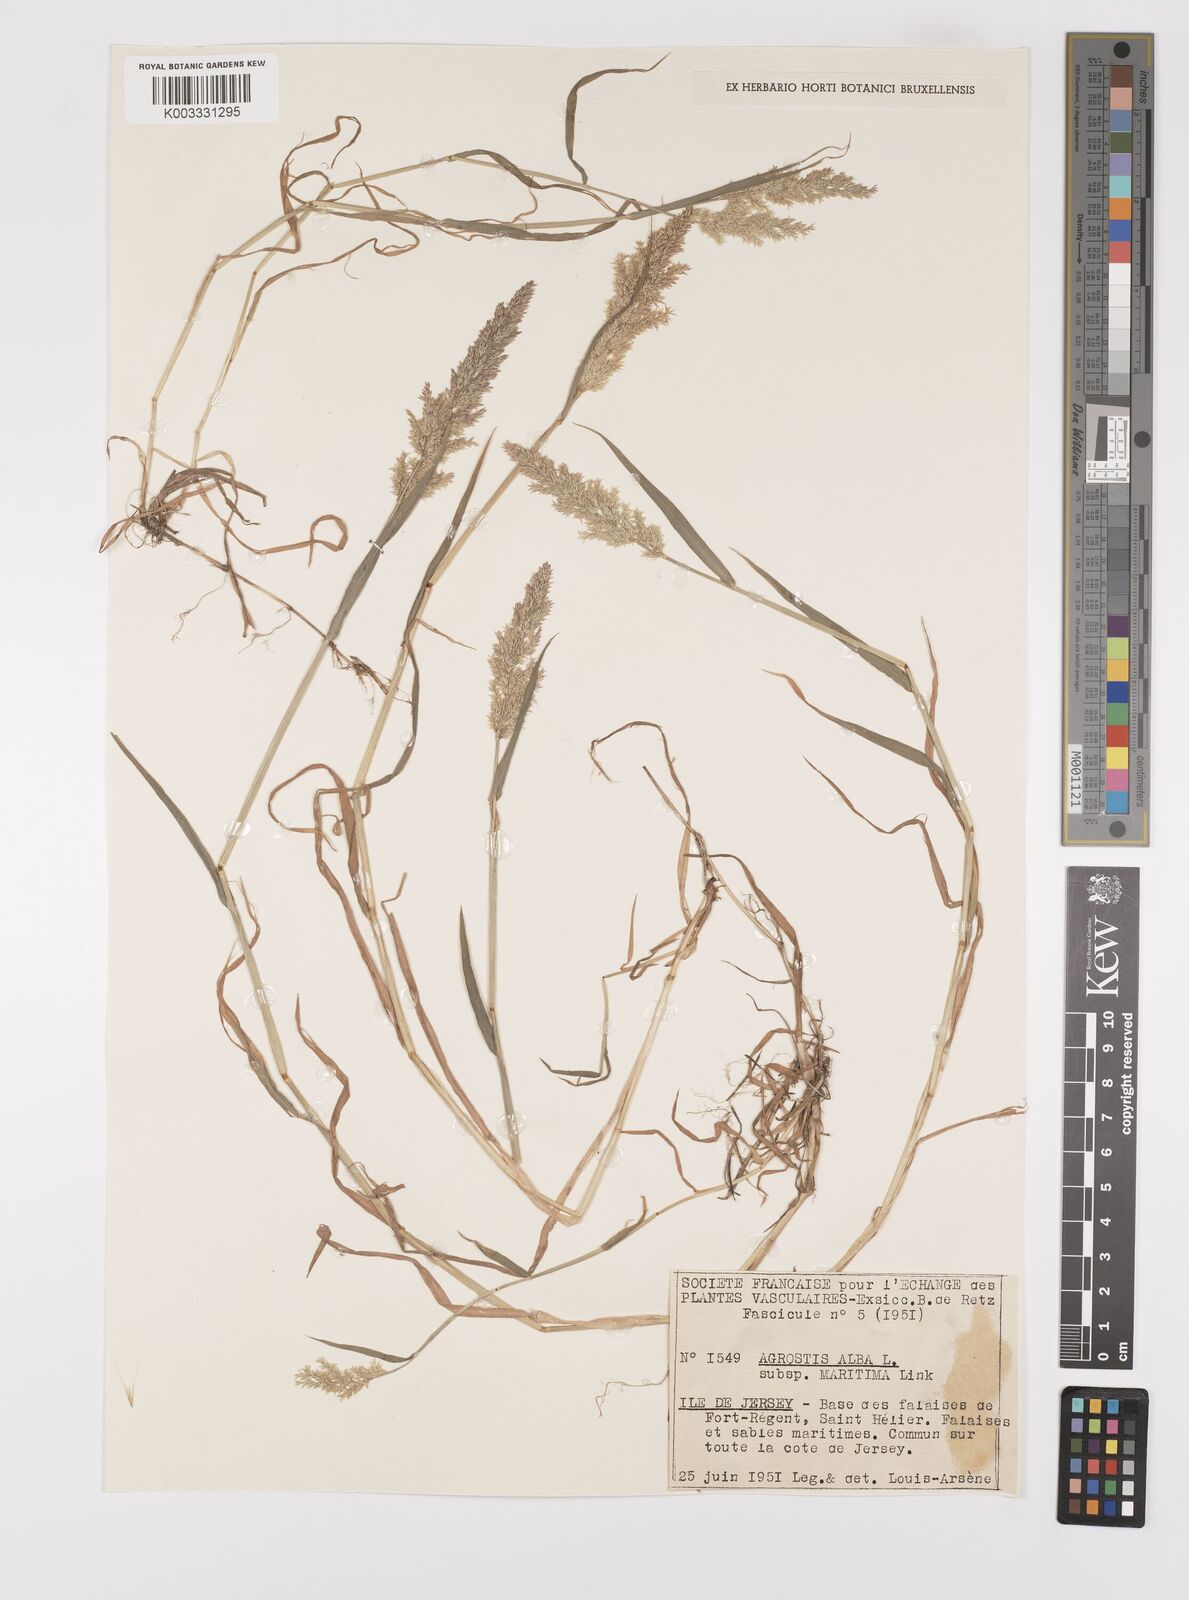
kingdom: Plantae
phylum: Tracheophyta
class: Liliopsida
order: Poales
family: Poaceae
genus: Polypogon
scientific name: Polypogon viridis
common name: Water bent
